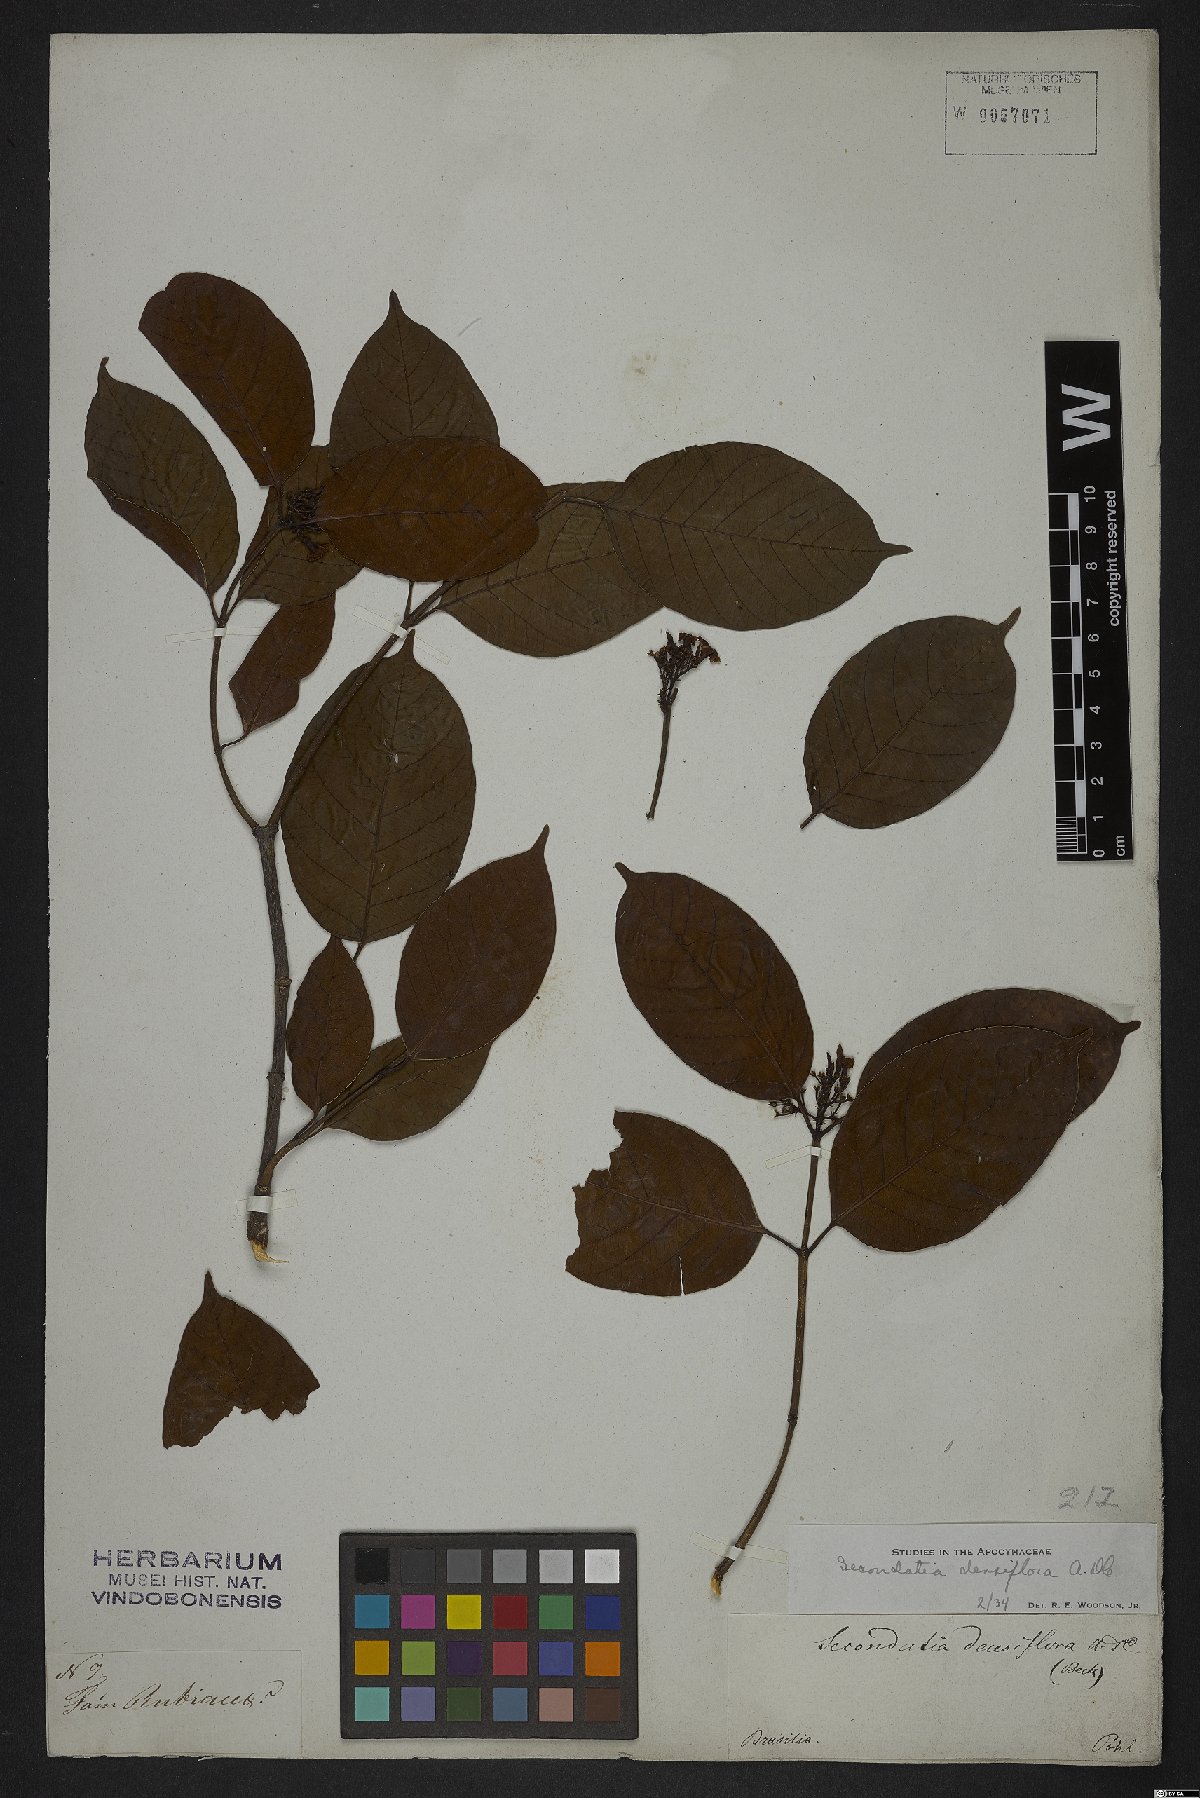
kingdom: Plantae
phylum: Tracheophyta
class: Magnoliopsida
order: Gentianales
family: Apocynaceae
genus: Secondatia
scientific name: Secondatia densiflora
